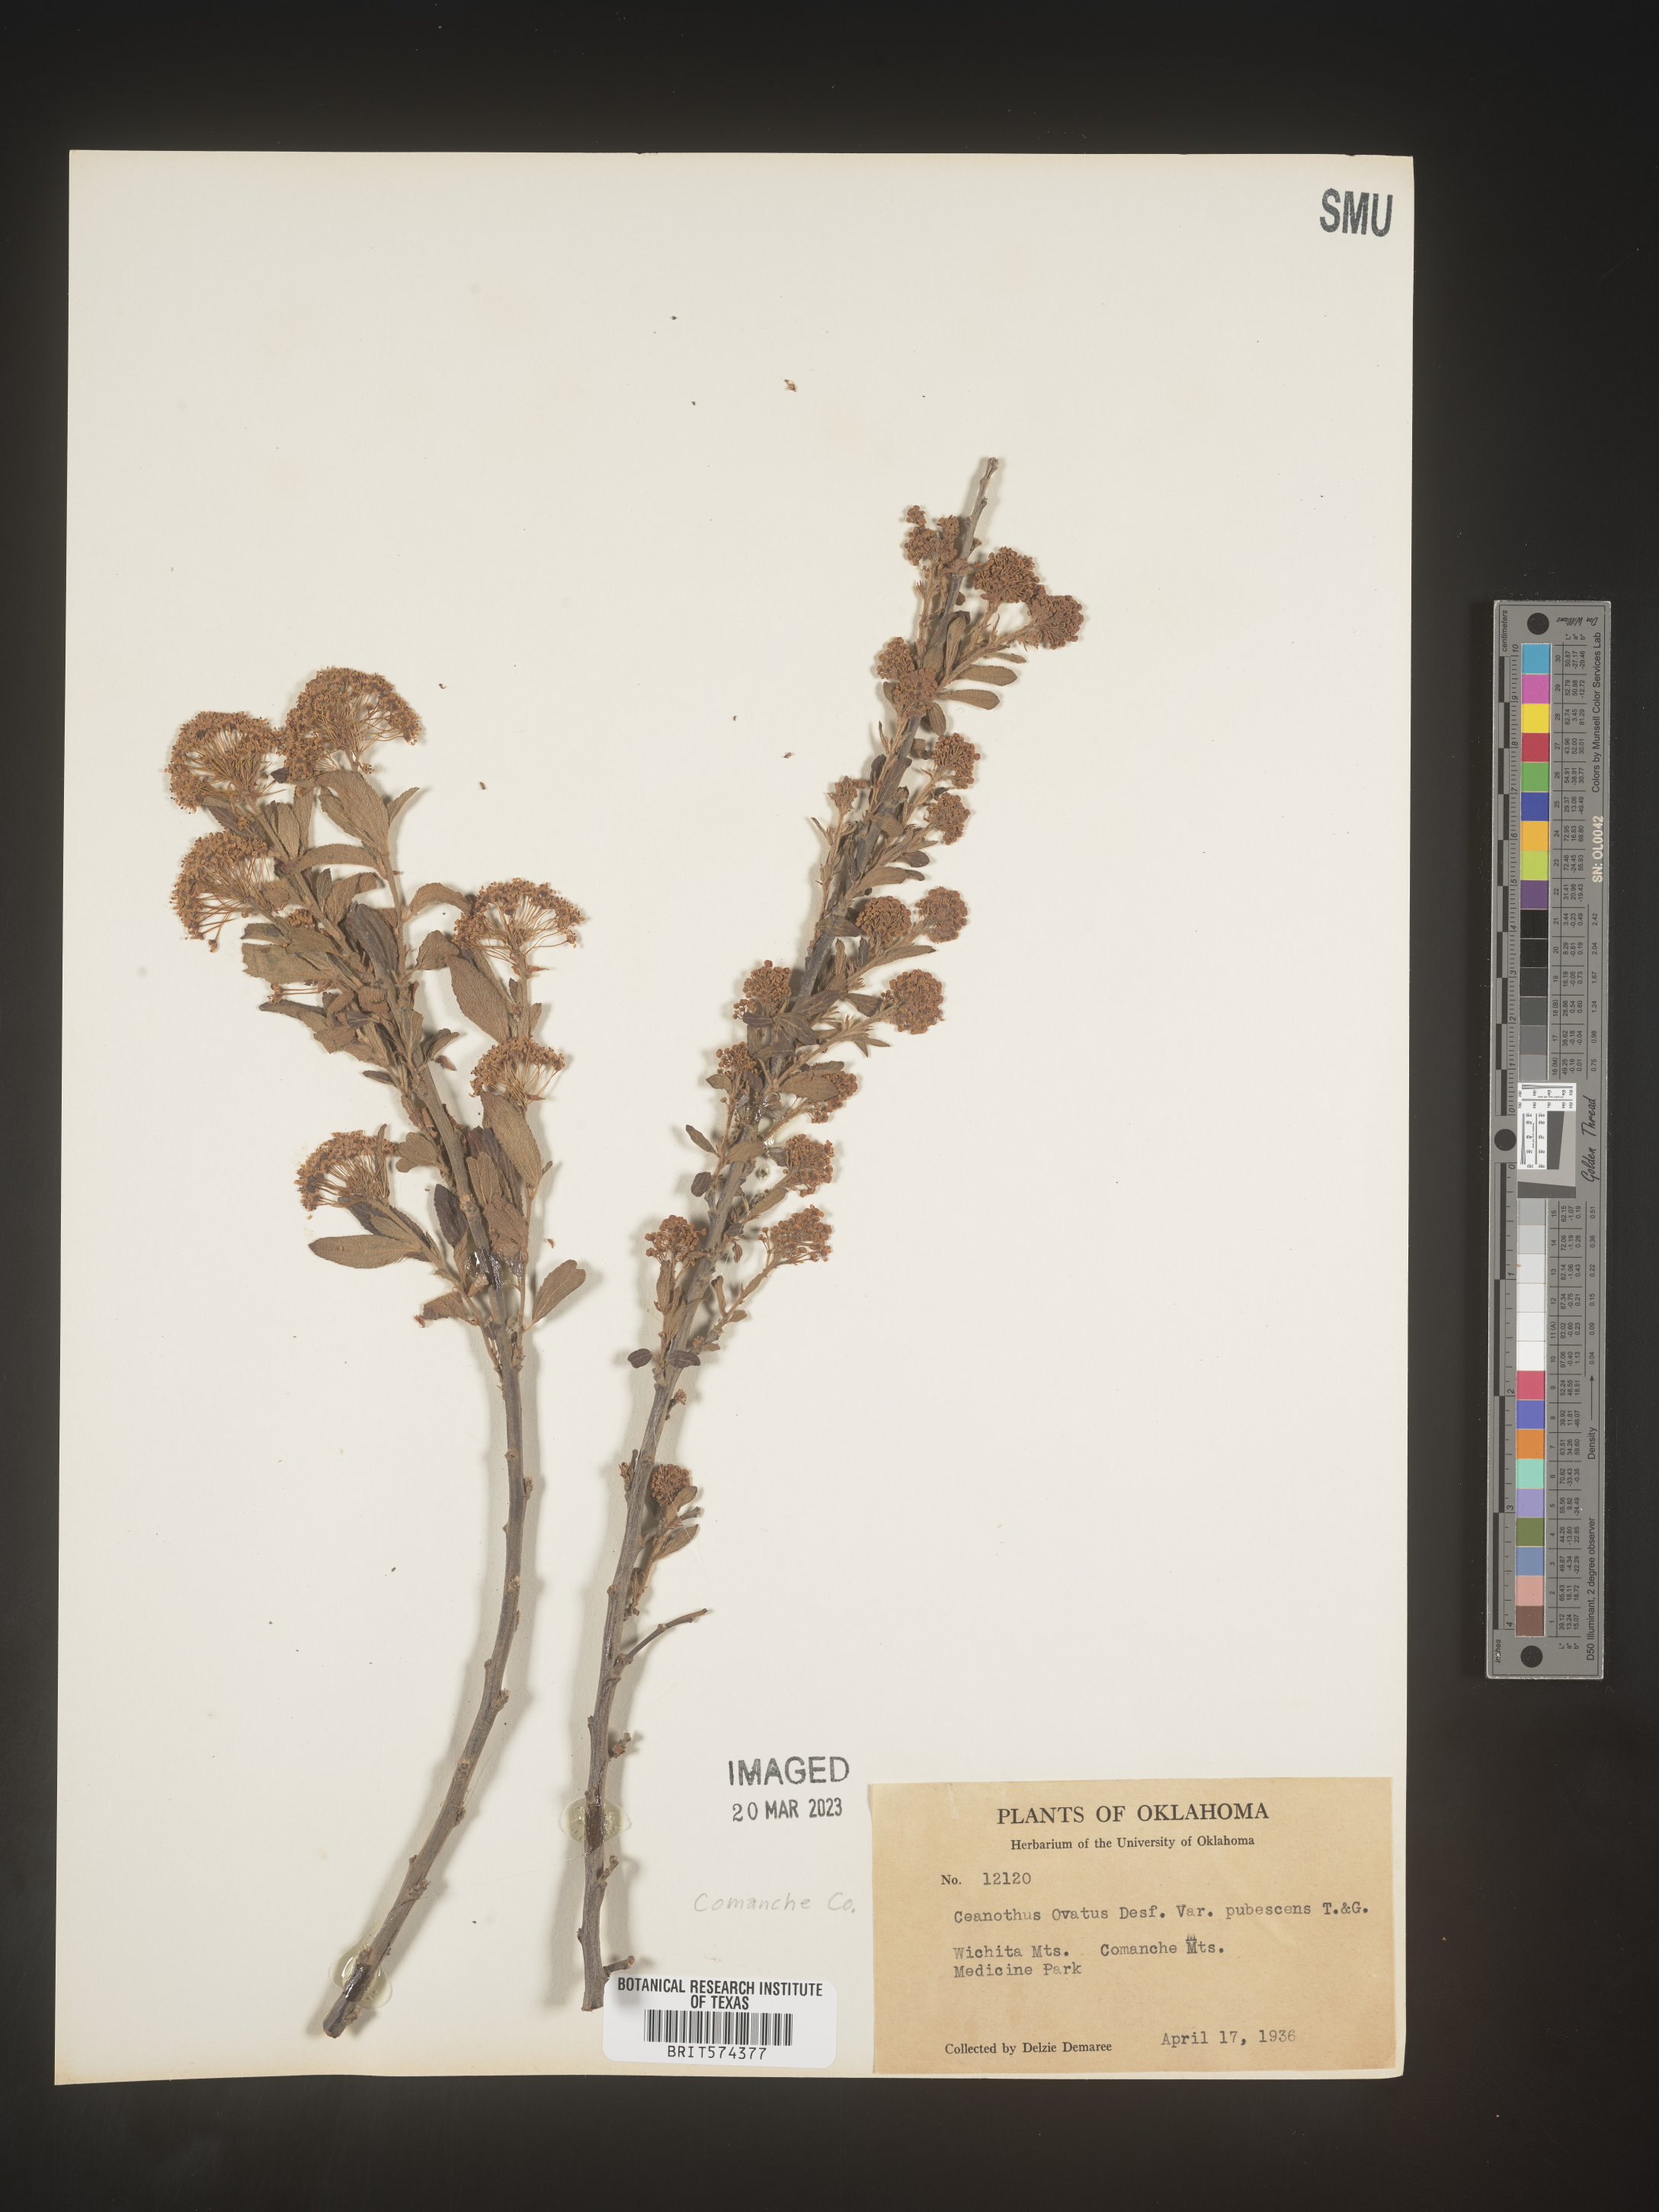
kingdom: Plantae
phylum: Tracheophyta
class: Magnoliopsida
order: Rosales
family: Rhamnaceae
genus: Ceanothus
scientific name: Ceanothus herbaceus
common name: Inland ceanothus
